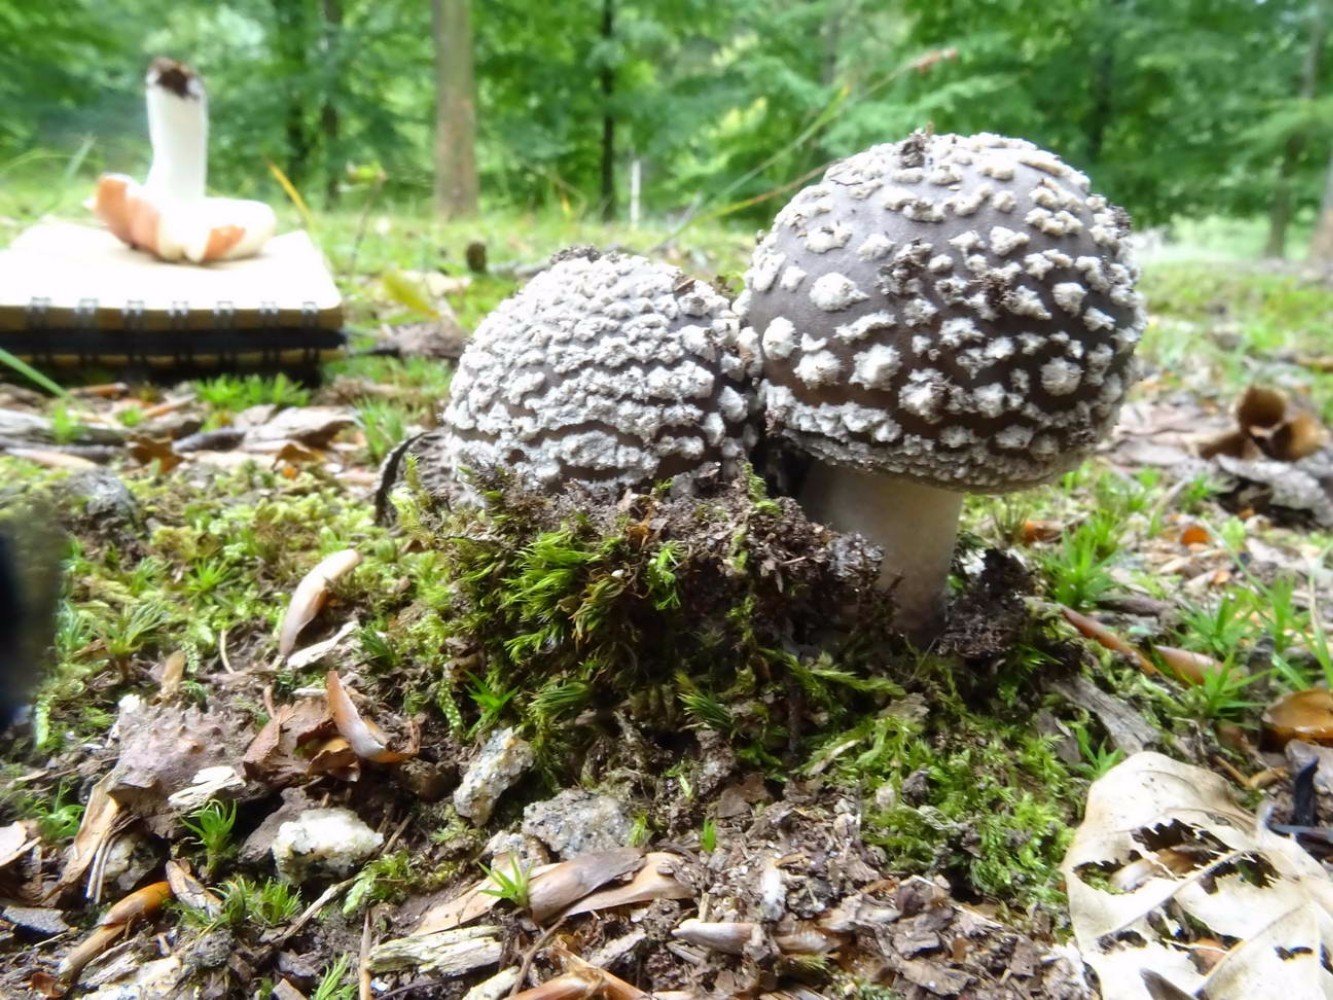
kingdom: Fungi
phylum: Basidiomycota
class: Agaricomycetes
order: Agaricales
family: Amanitaceae
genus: Amanita
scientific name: Amanita
